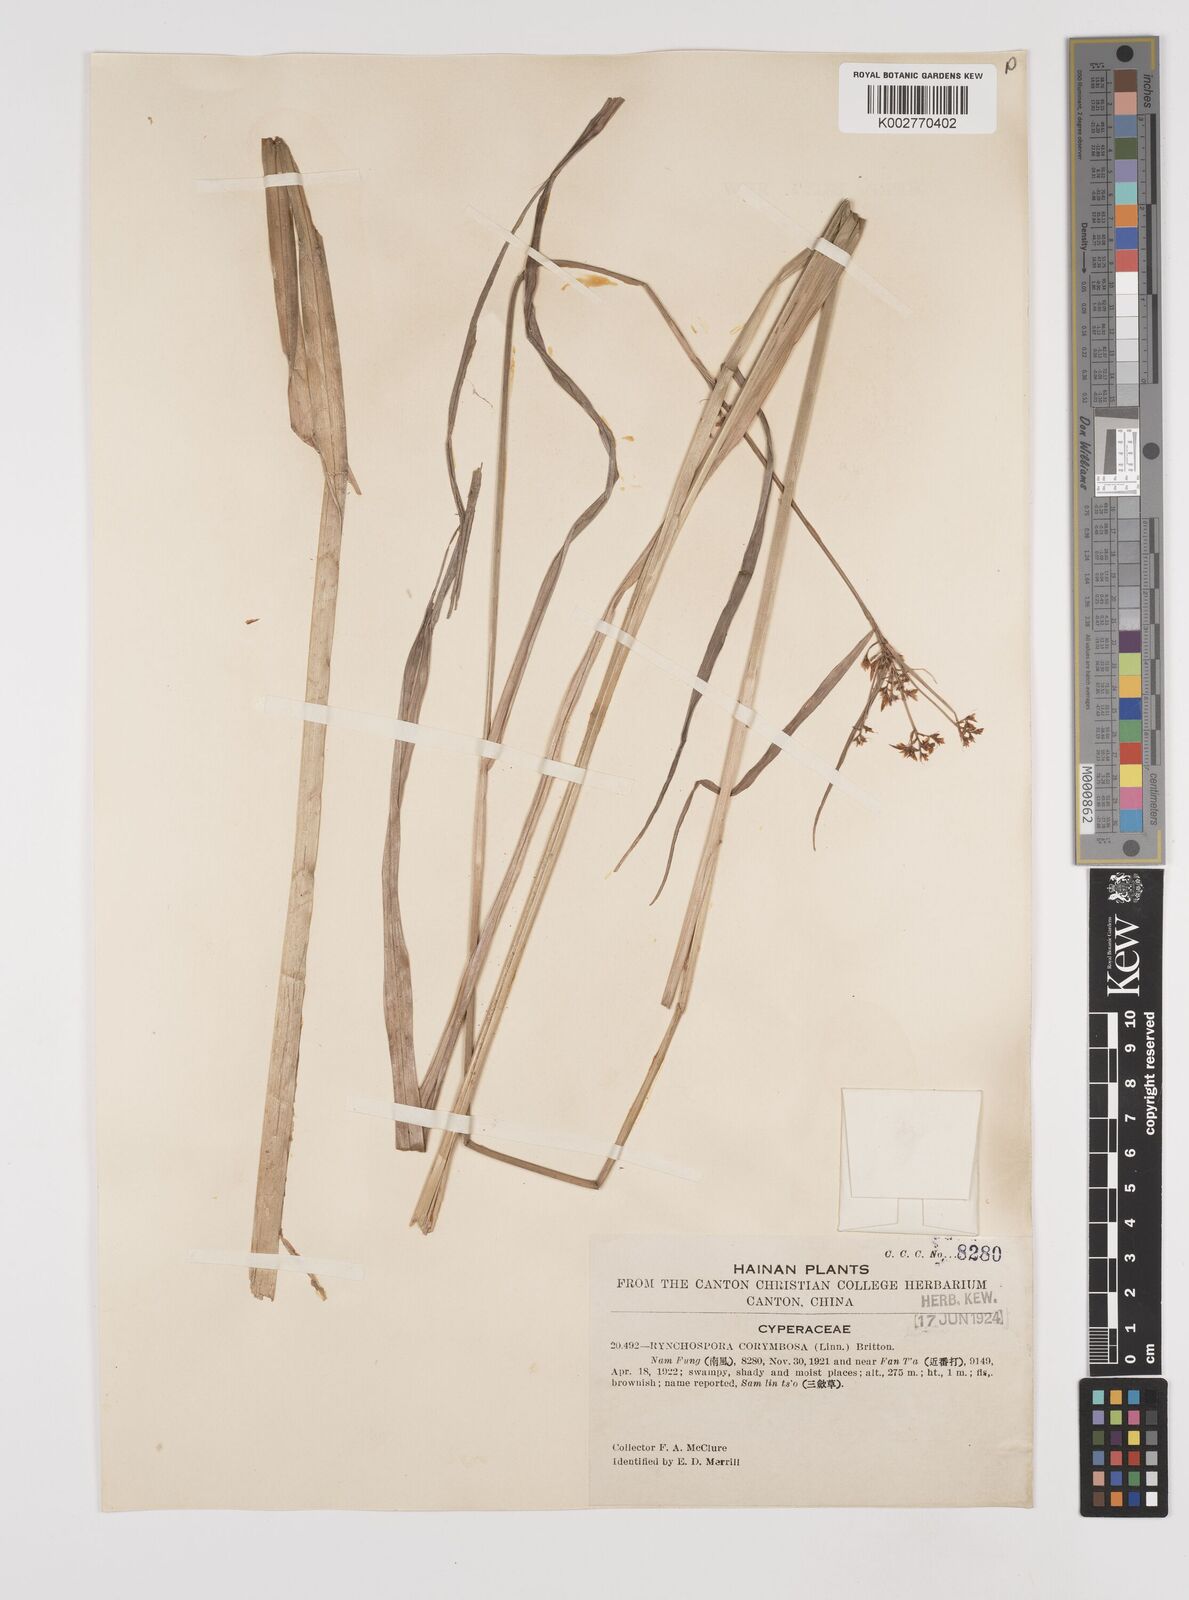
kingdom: Plantae
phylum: Tracheophyta
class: Liliopsida
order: Poales
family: Cyperaceae
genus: Rhynchospora
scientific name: Rhynchospora corymbosa
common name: Golden beak sedge
